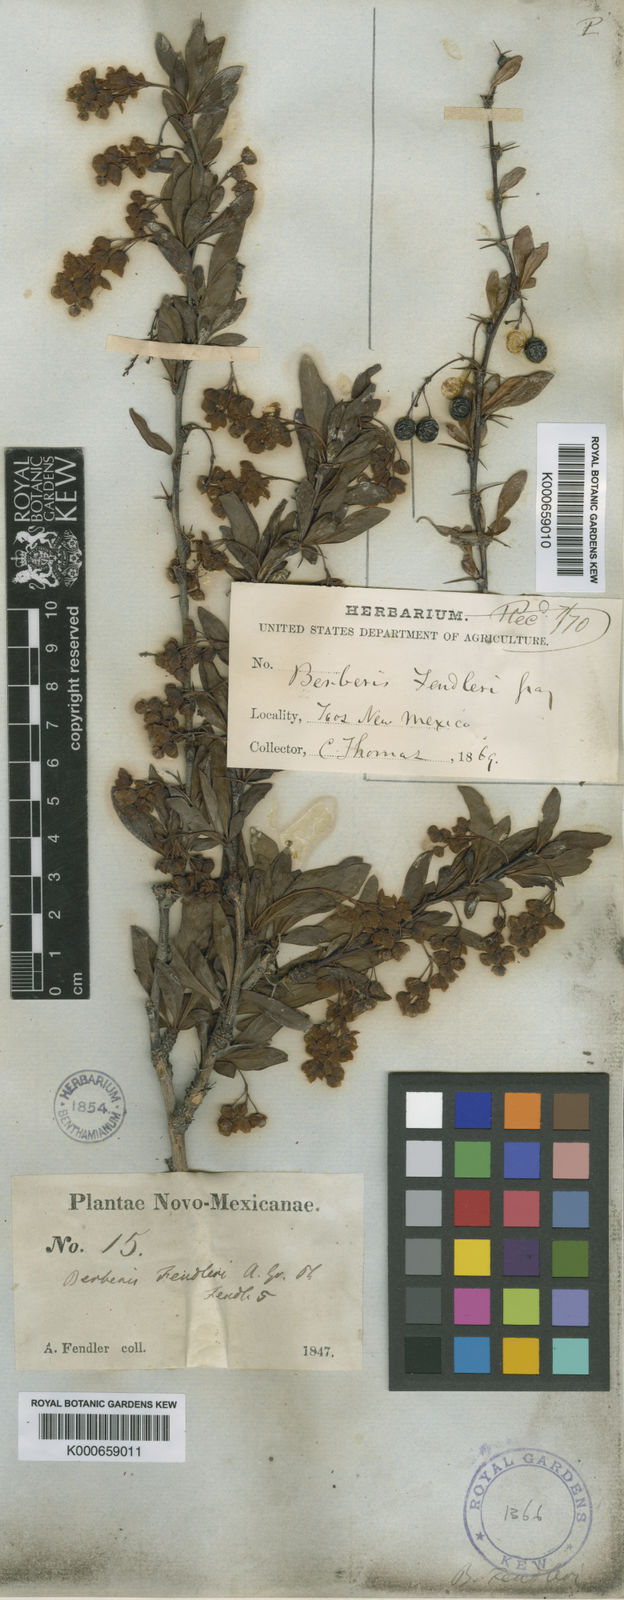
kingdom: Plantae
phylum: Tracheophyta
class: Magnoliopsida
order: Ranunculales
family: Berberidaceae
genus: Berberis
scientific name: Berberis fendleri
